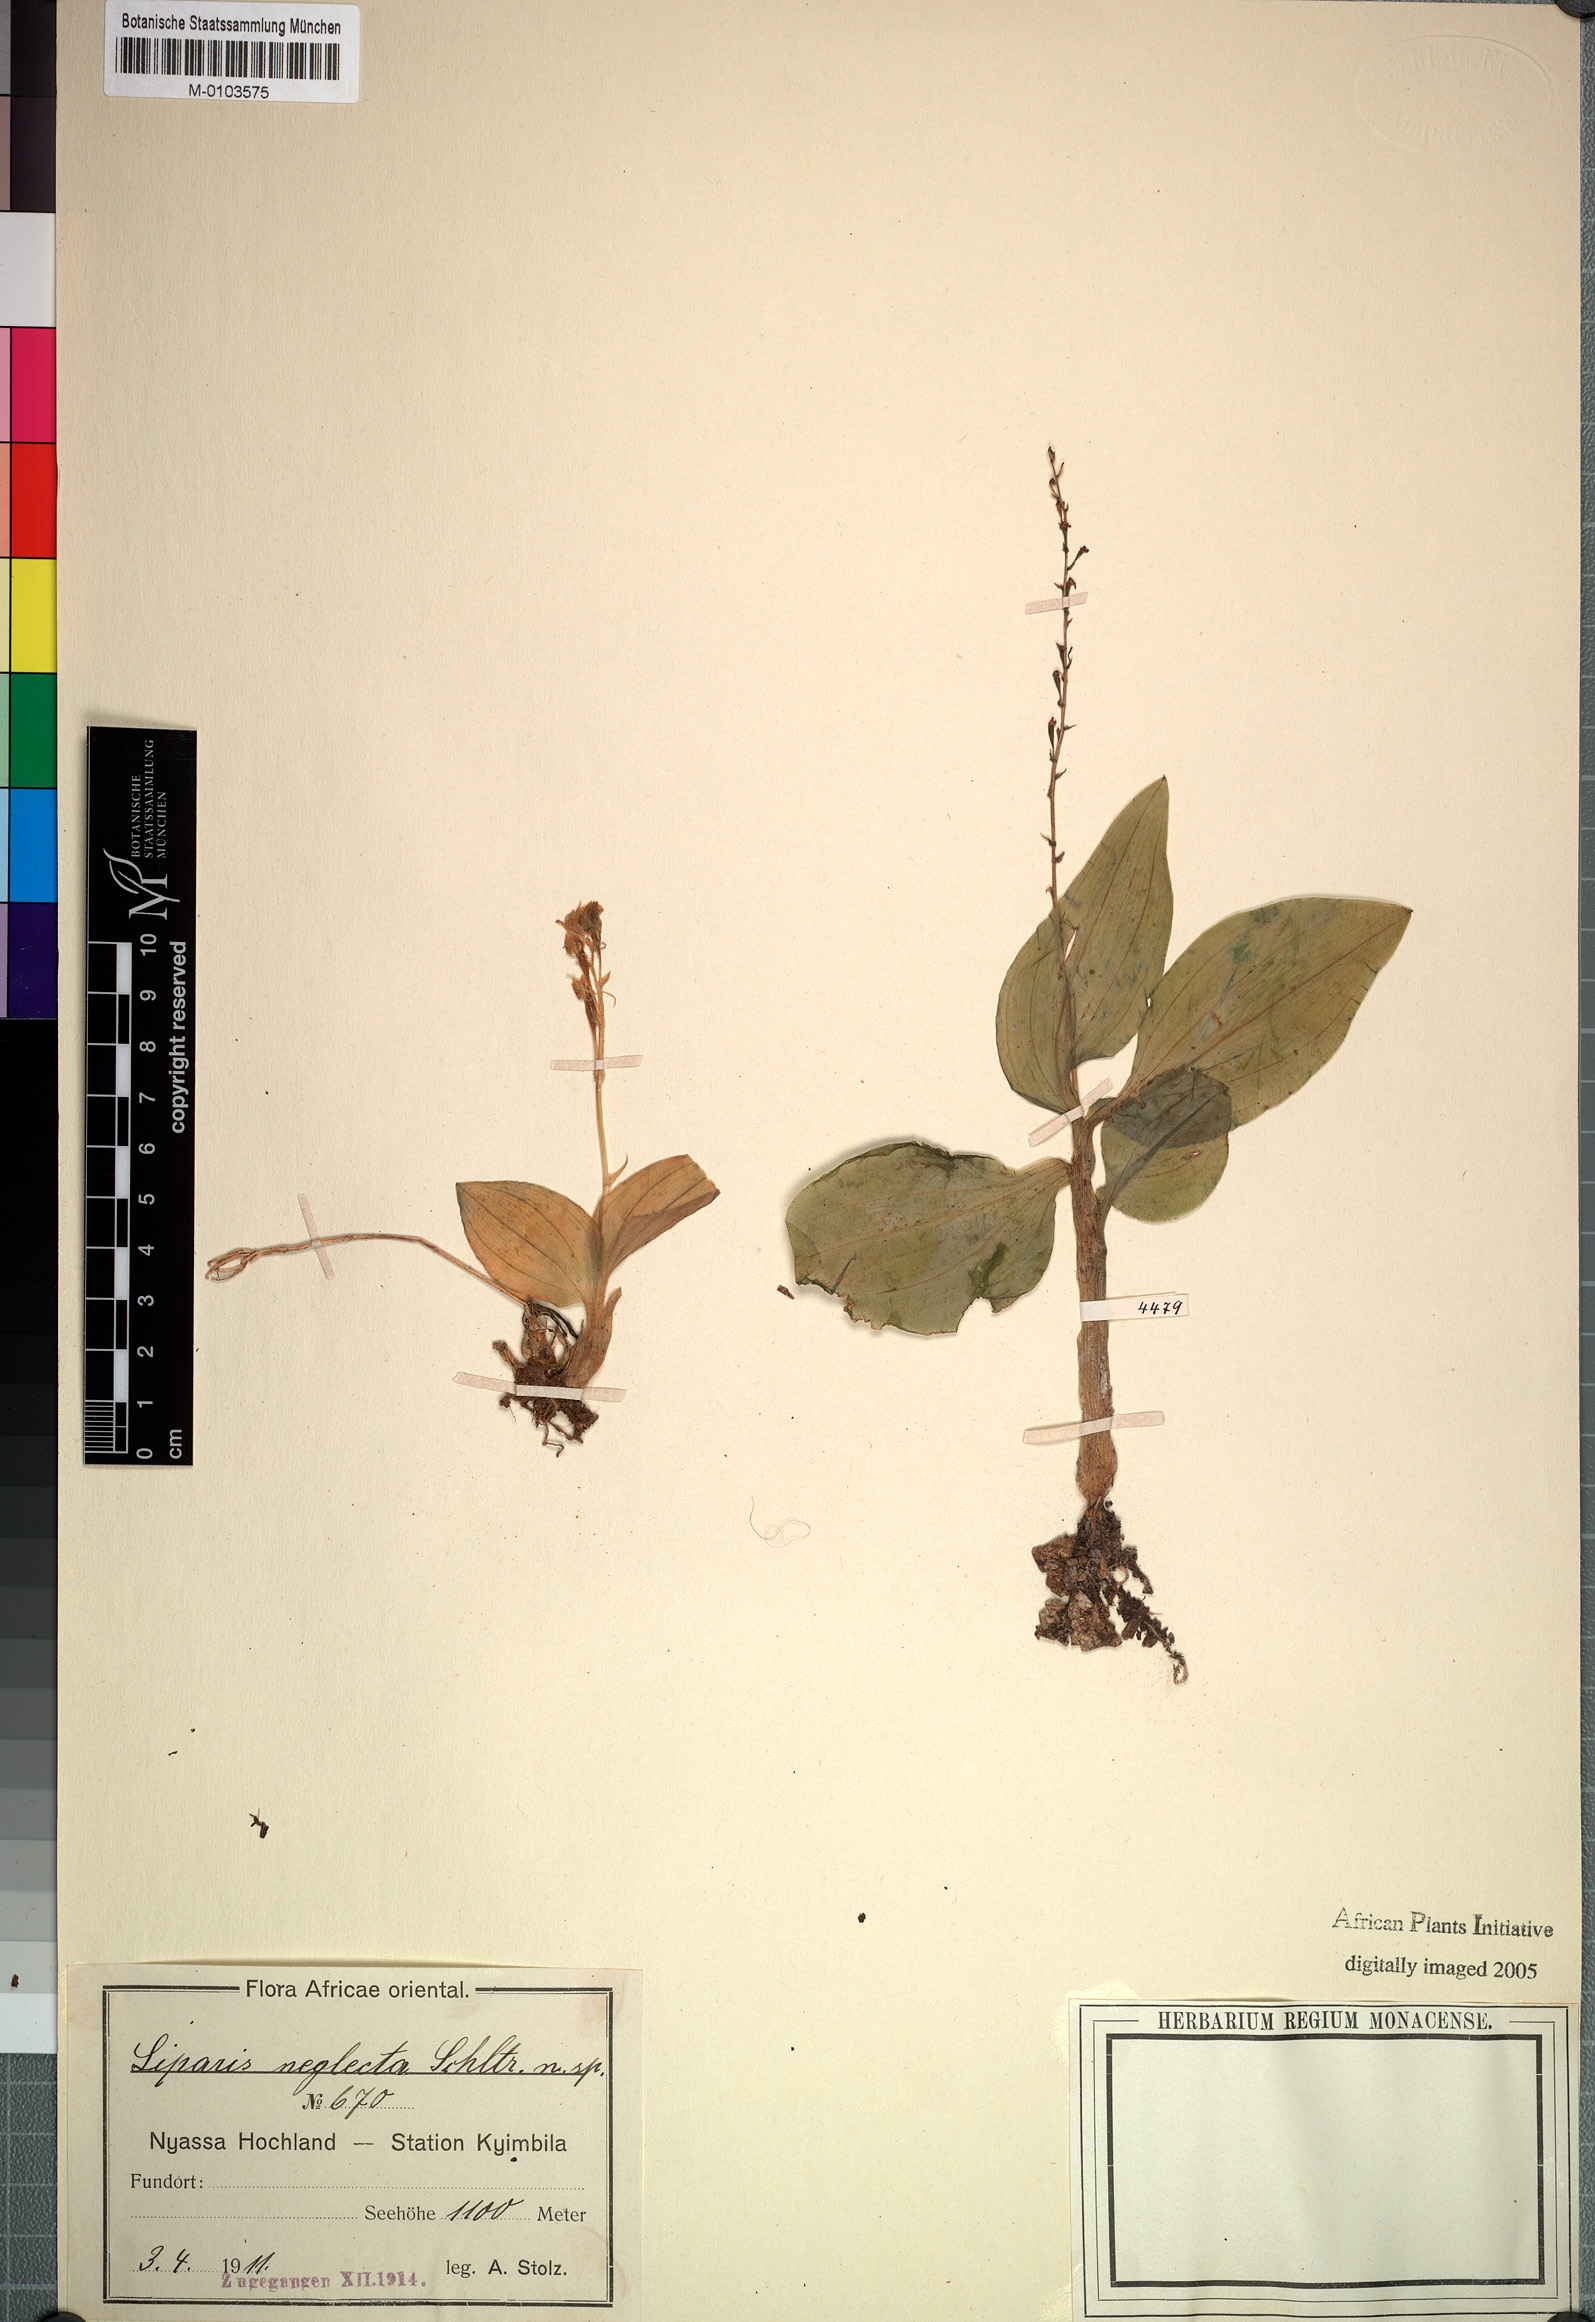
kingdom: Plantae
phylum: Tracheophyta
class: Liliopsida
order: Asparagales
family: Orchidaceae
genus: Liparis
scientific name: Liparis bowkeri
